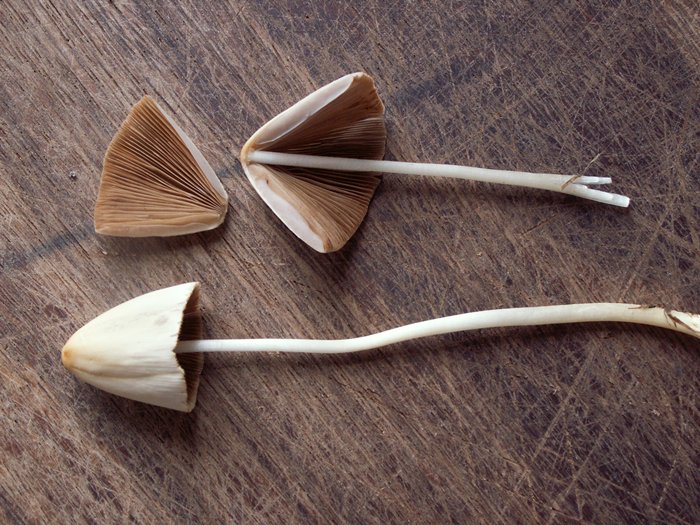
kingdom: Fungi
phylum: Basidiomycota
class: Agaricomycetes
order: Agaricales
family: Bolbitiaceae
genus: Conocybe
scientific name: Conocybe apala
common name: mælkehvid keglehat
